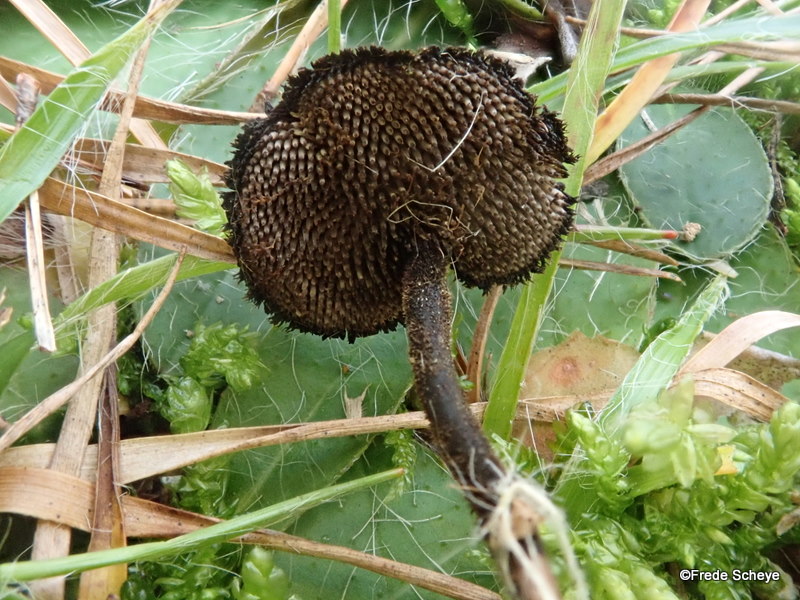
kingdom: Fungi
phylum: Basidiomycota
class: Agaricomycetes
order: Russulales
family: Auriscalpiaceae
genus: Auriscalpium
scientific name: Auriscalpium vulgare
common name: koglepigsvamp
